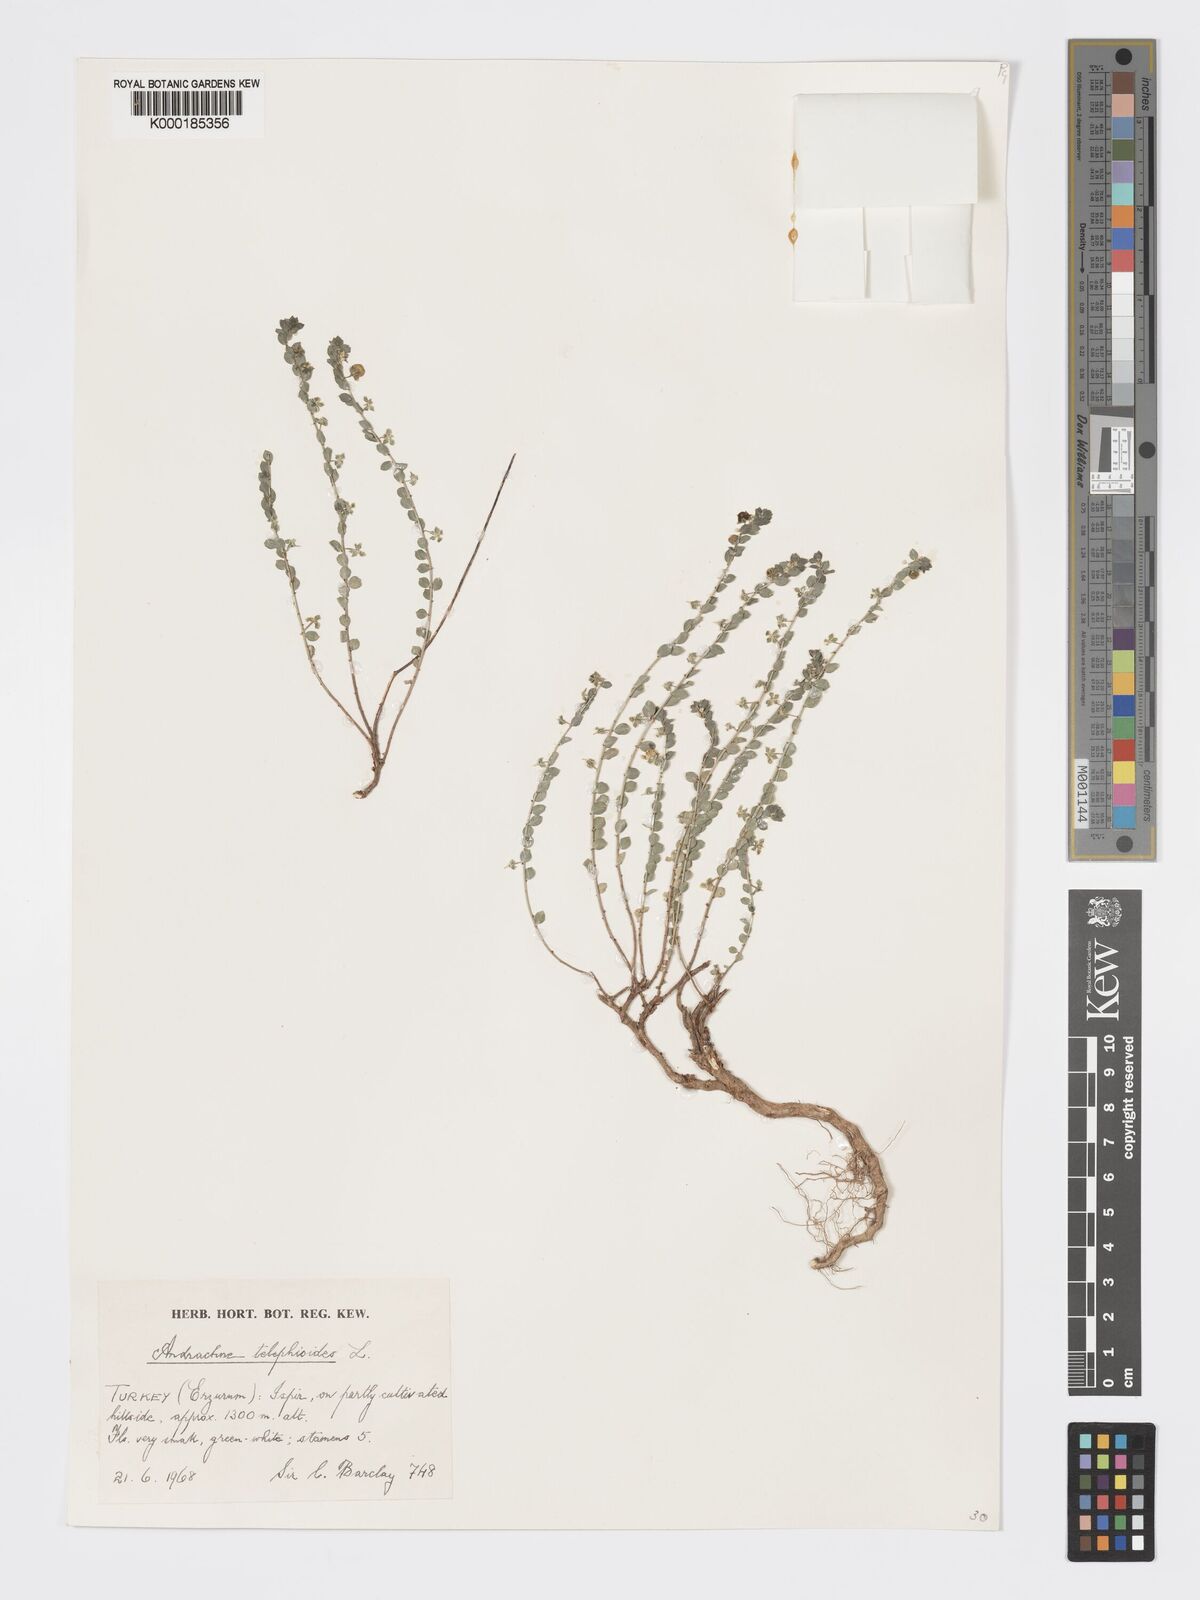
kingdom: Plantae
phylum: Tracheophyta
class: Magnoliopsida
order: Malpighiales
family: Phyllanthaceae
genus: Andrachne
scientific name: Andrachne telephioides
